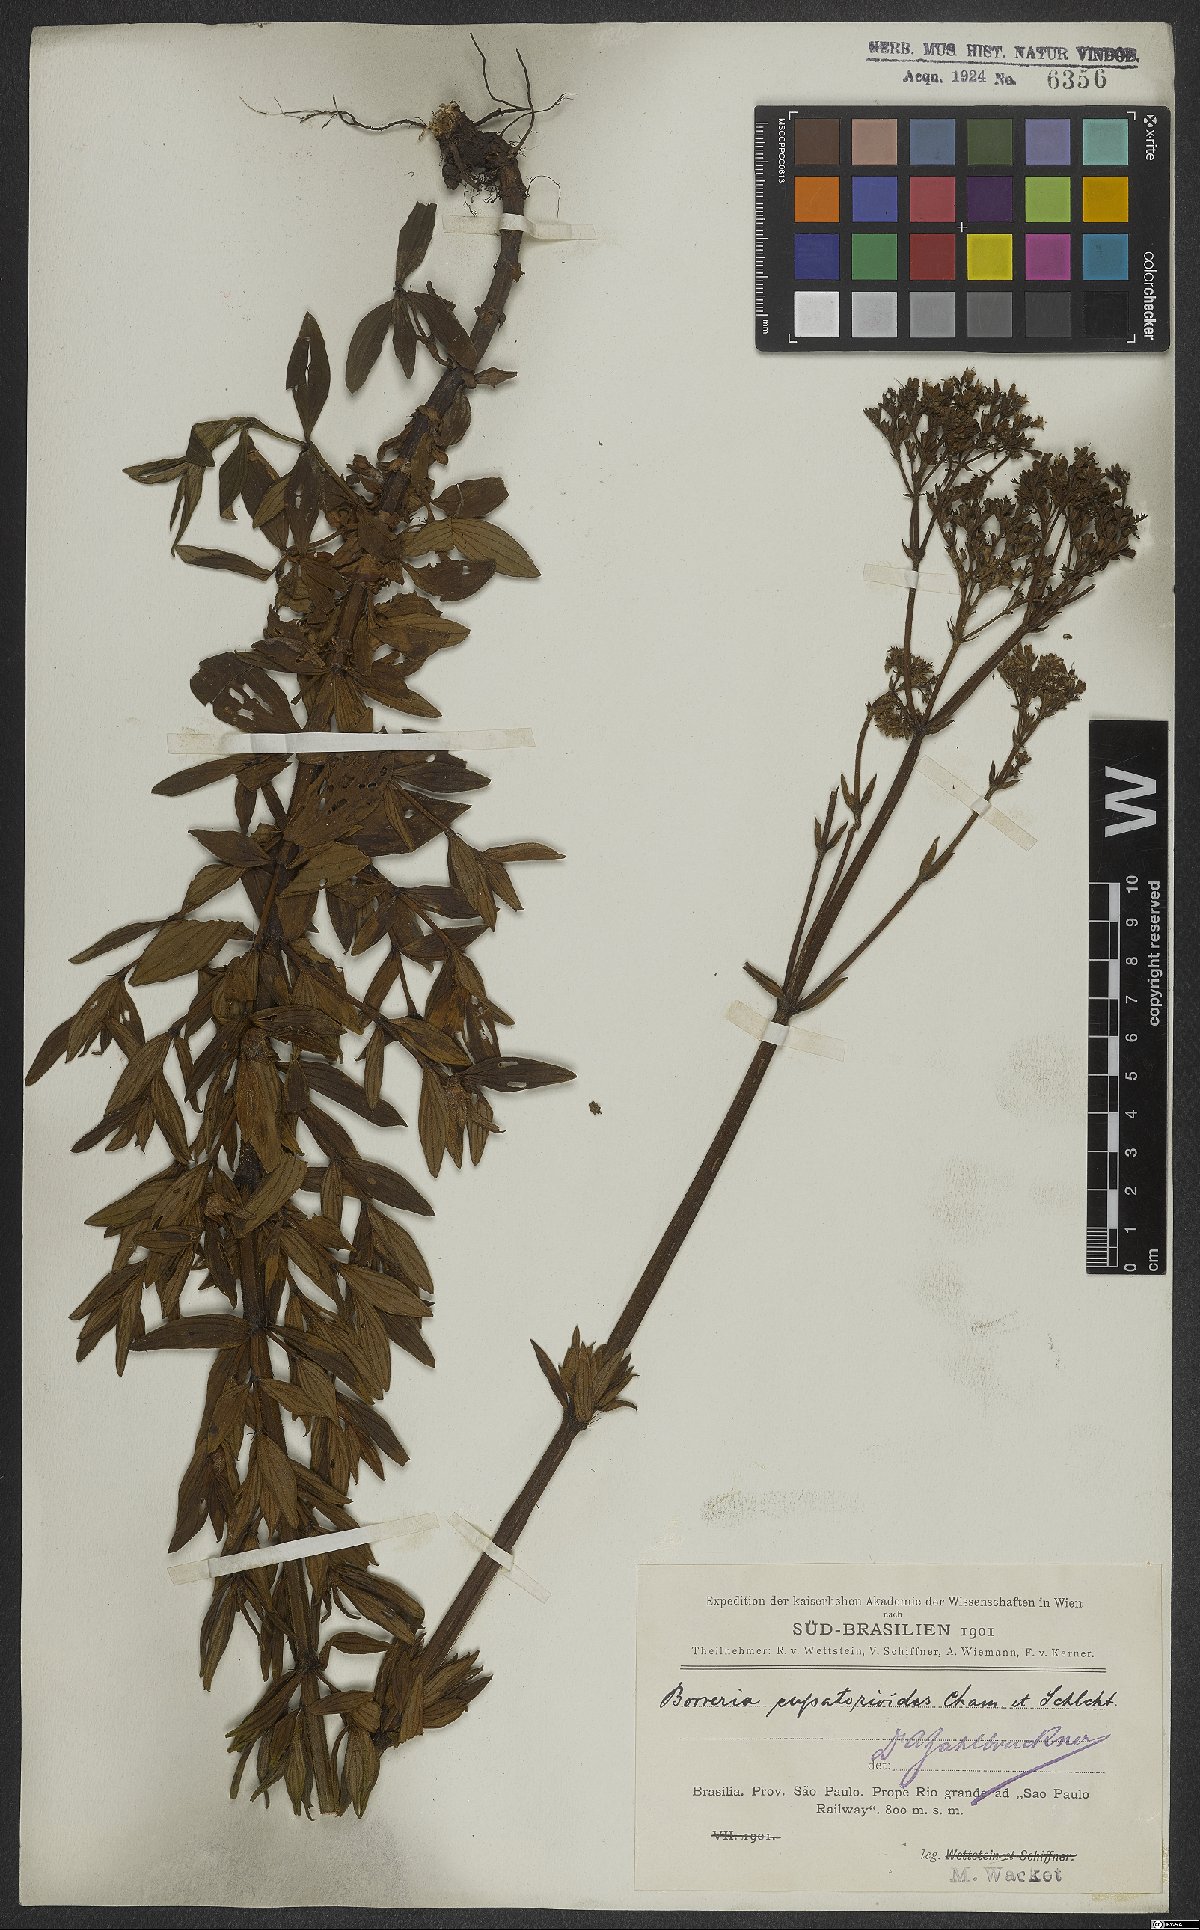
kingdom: Plantae
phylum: Tracheophyta
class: Magnoliopsida
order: Gentianales
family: Rubiaceae
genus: Galianthe
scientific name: Galianthe eupatorioides
